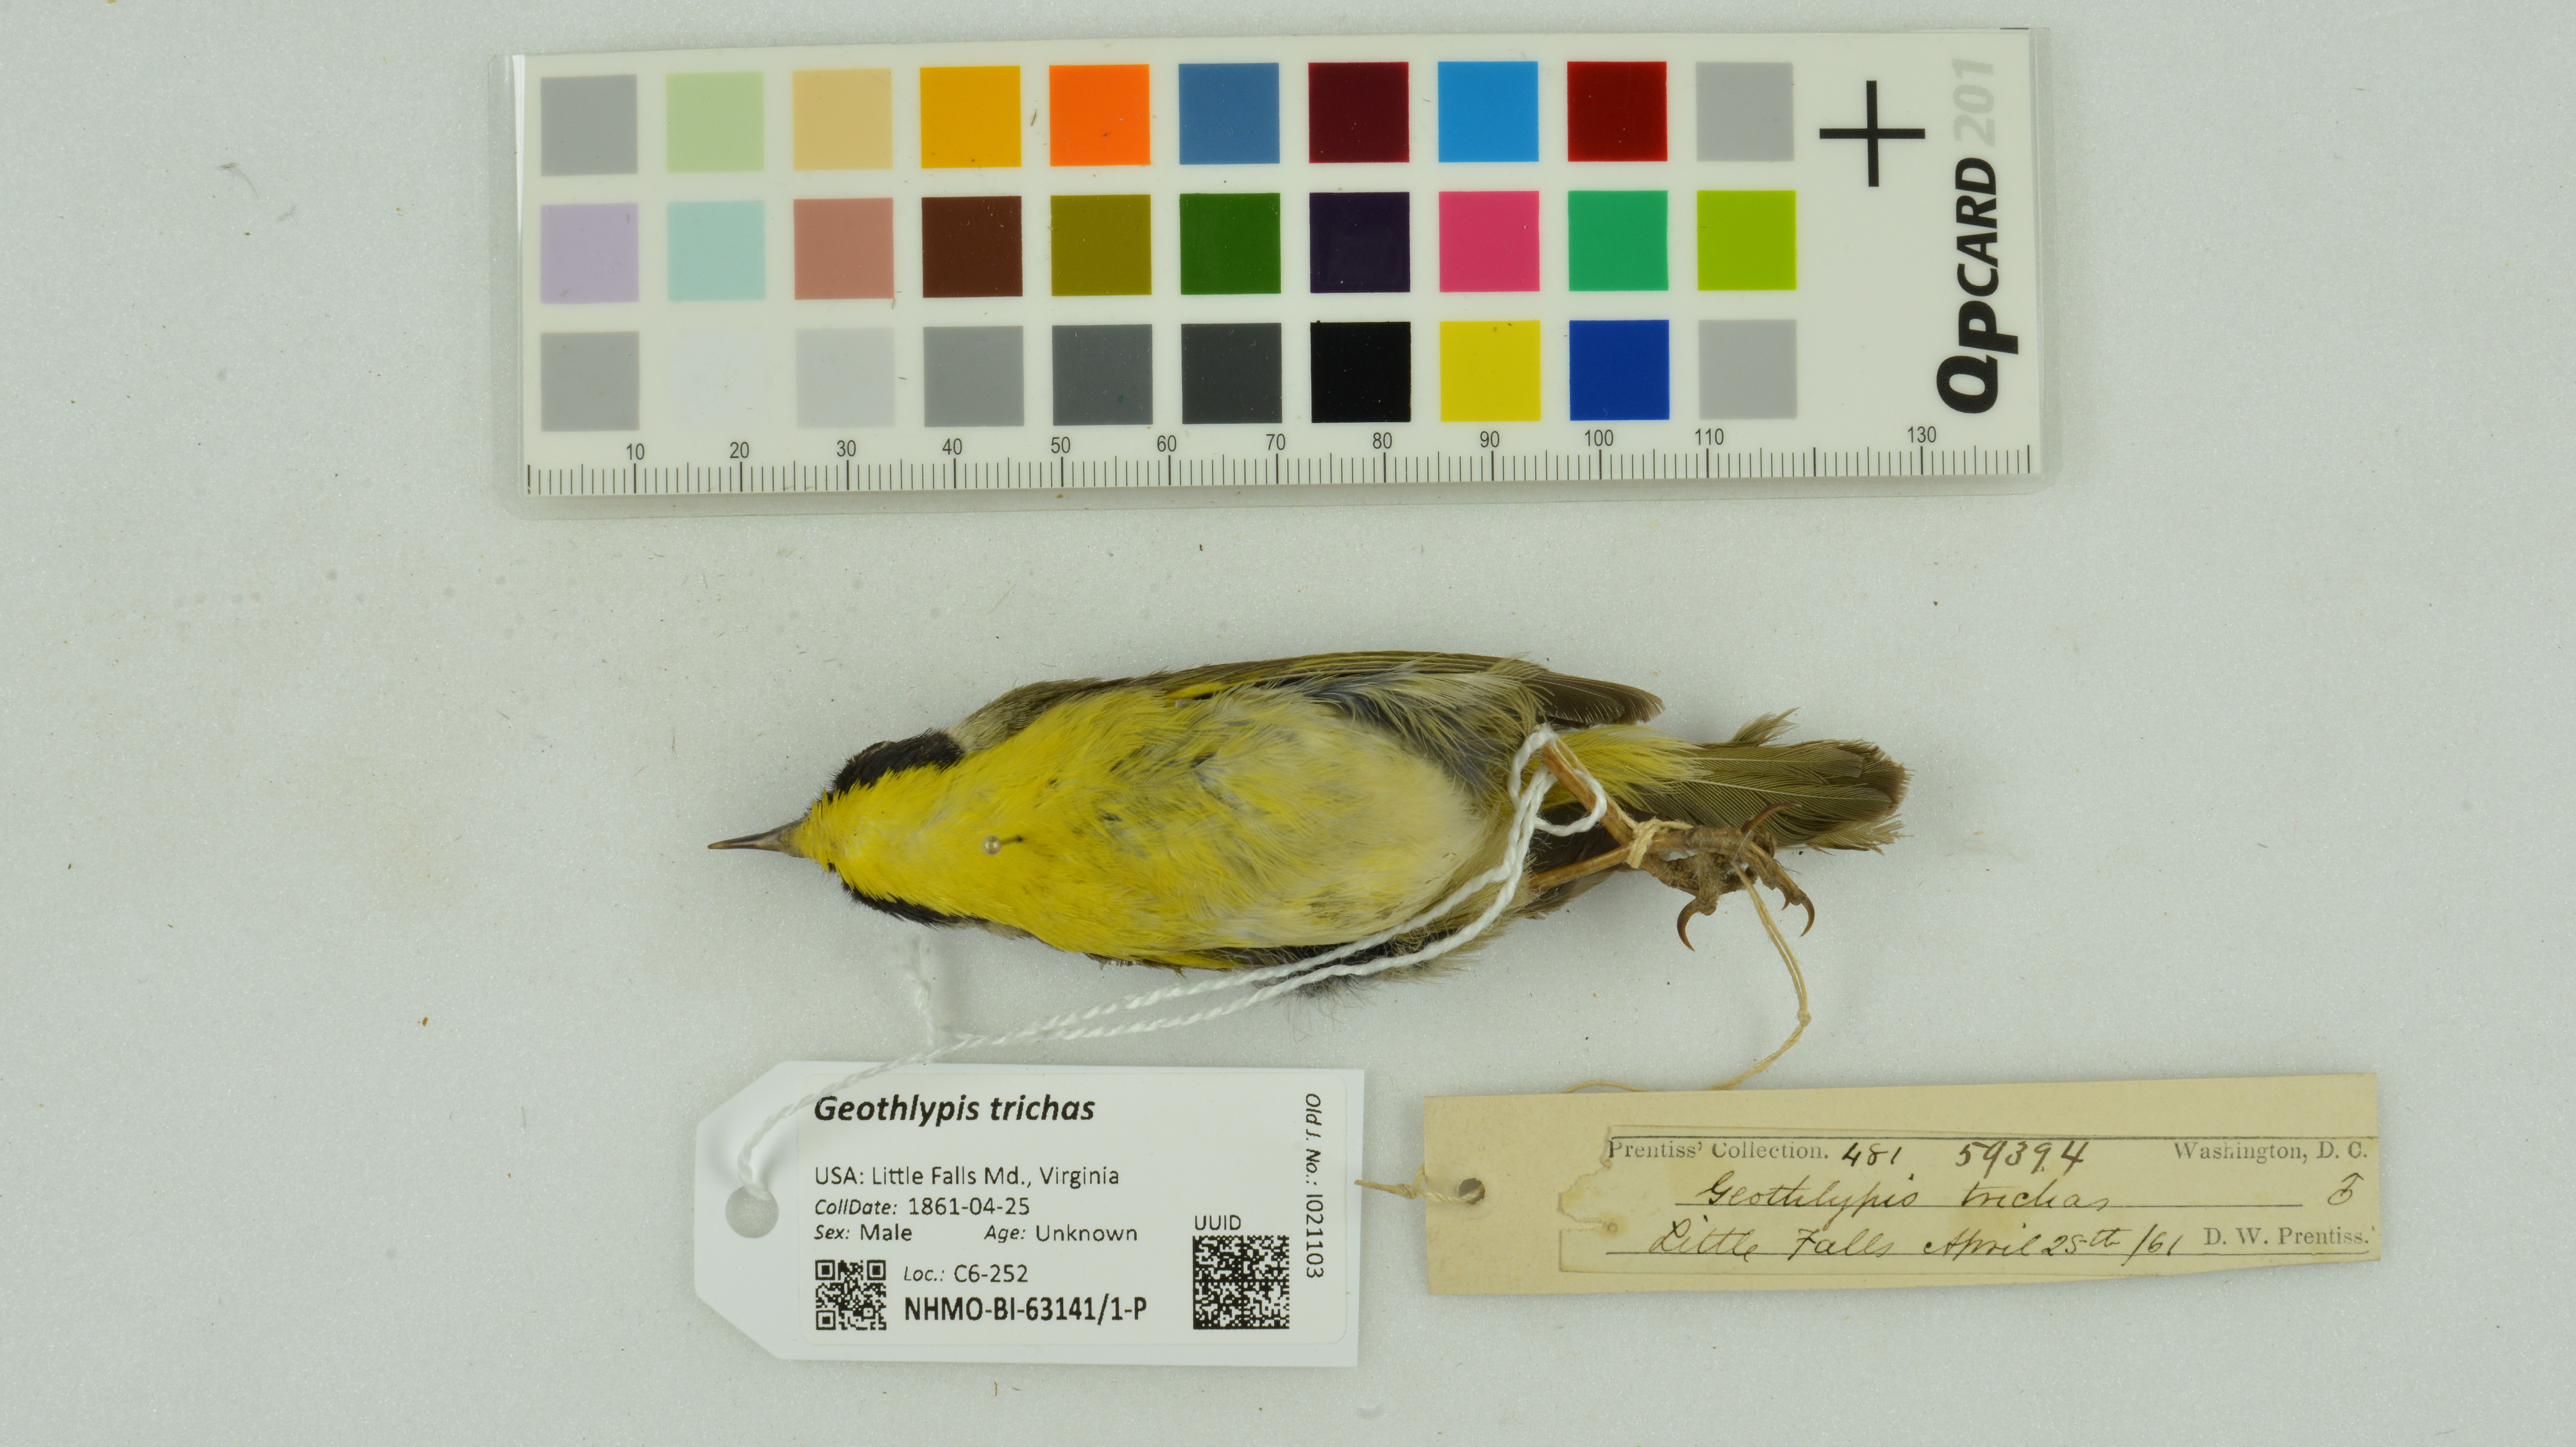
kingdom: Animalia
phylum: Chordata
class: Aves
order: Passeriformes
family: Parulidae
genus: Geothlypis
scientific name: Geothlypis trichas
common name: Common yellowthroat
